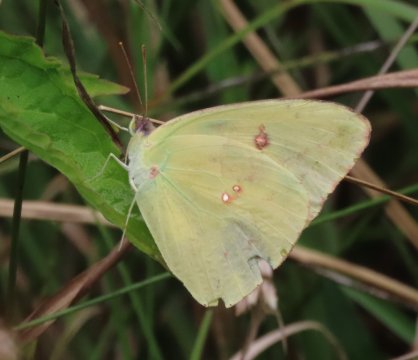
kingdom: Animalia
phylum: Arthropoda
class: Insecta
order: Lepidoptera
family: Pieridae
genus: Phoebis
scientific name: Phoebis sennae
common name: Cloudless Sulphur
